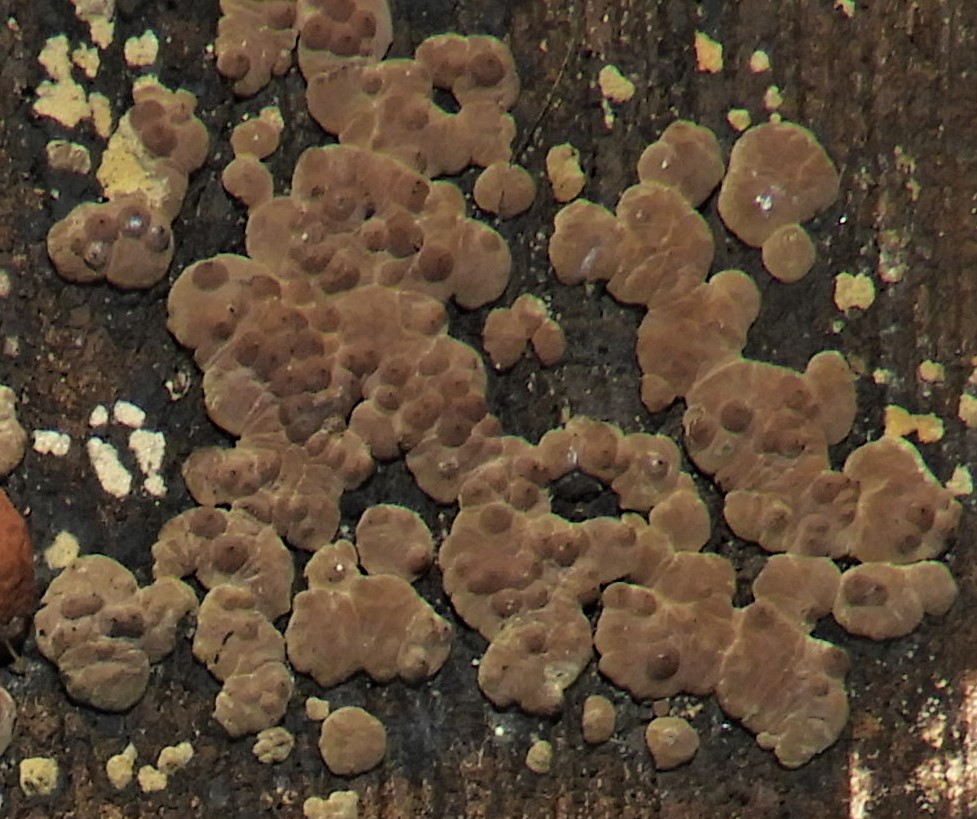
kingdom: Fungi
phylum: Ascomycota
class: Sordariomycetes
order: Xylariales
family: Hypoxylaceae
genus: Jackrogersella
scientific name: Jackrogersella cohaerens
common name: sammenflydende kulbær
